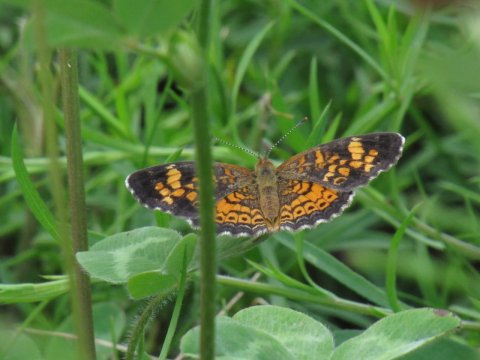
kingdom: Animalia
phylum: Arthropoda
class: Insecta
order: Lepidoptera
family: Nymphalidae
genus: Phyciodes
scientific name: Phyciodes tharos
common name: Pearl Crescent
